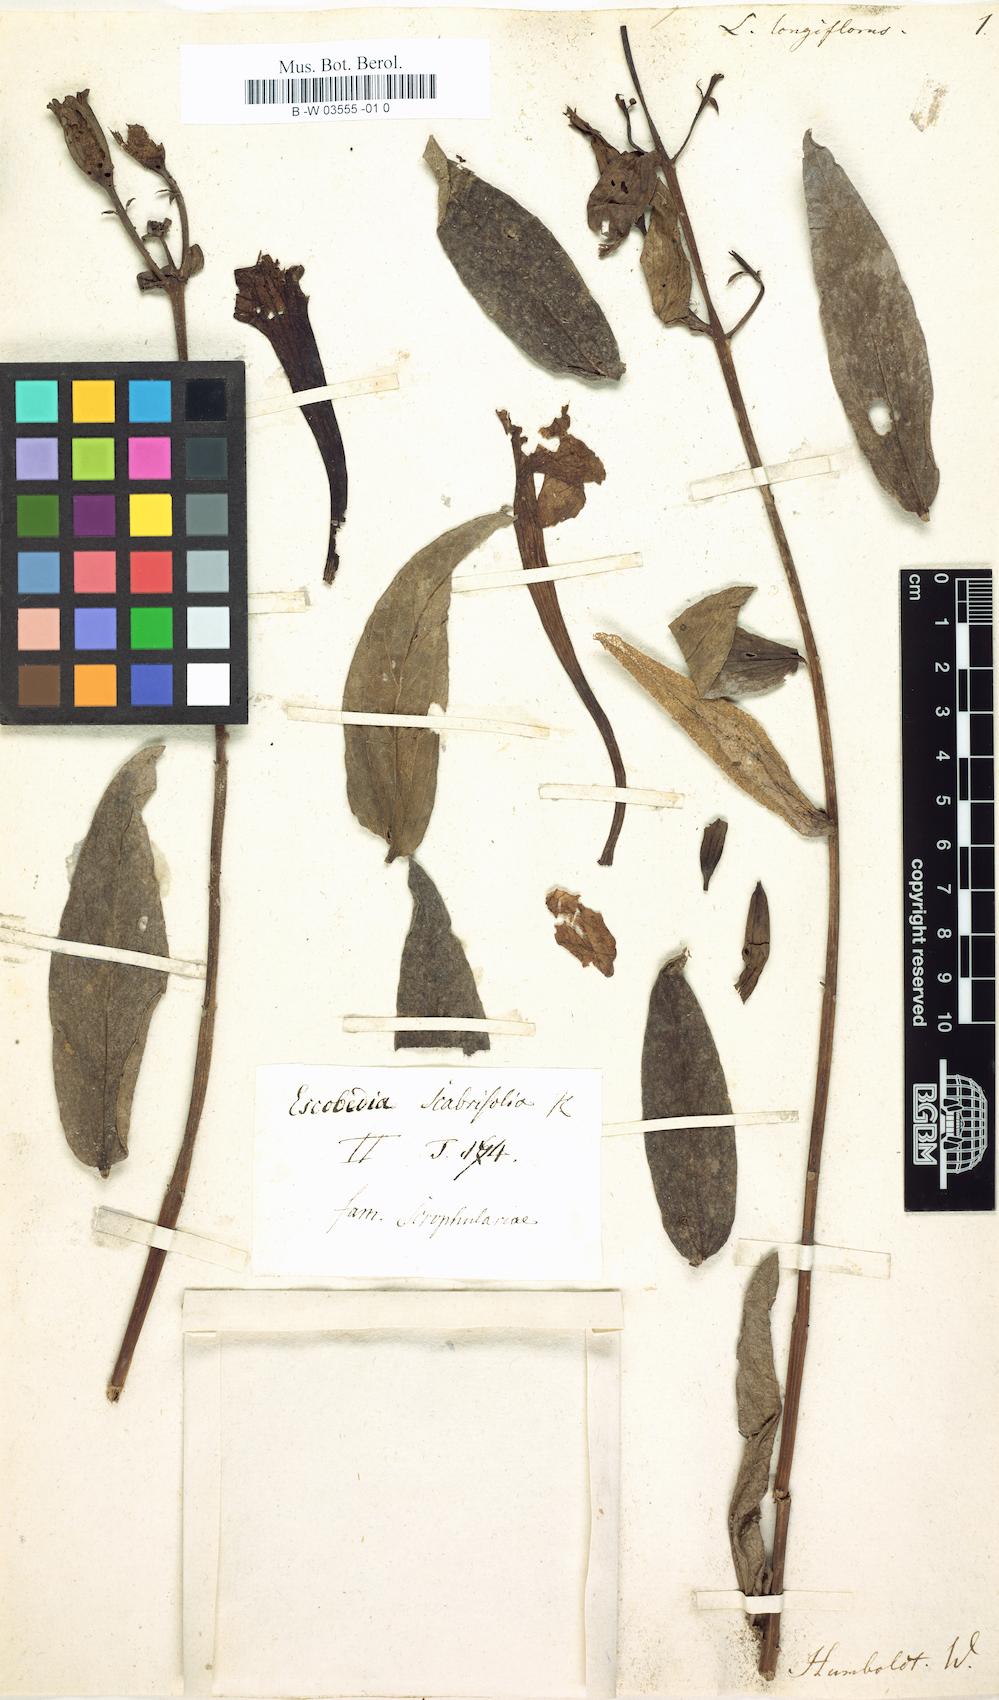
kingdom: Plantae
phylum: Tracheophyta
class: Magnoliopsida
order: Gentianales
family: Gentianaceae
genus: Enicostema
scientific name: Enicostema verticillatum
